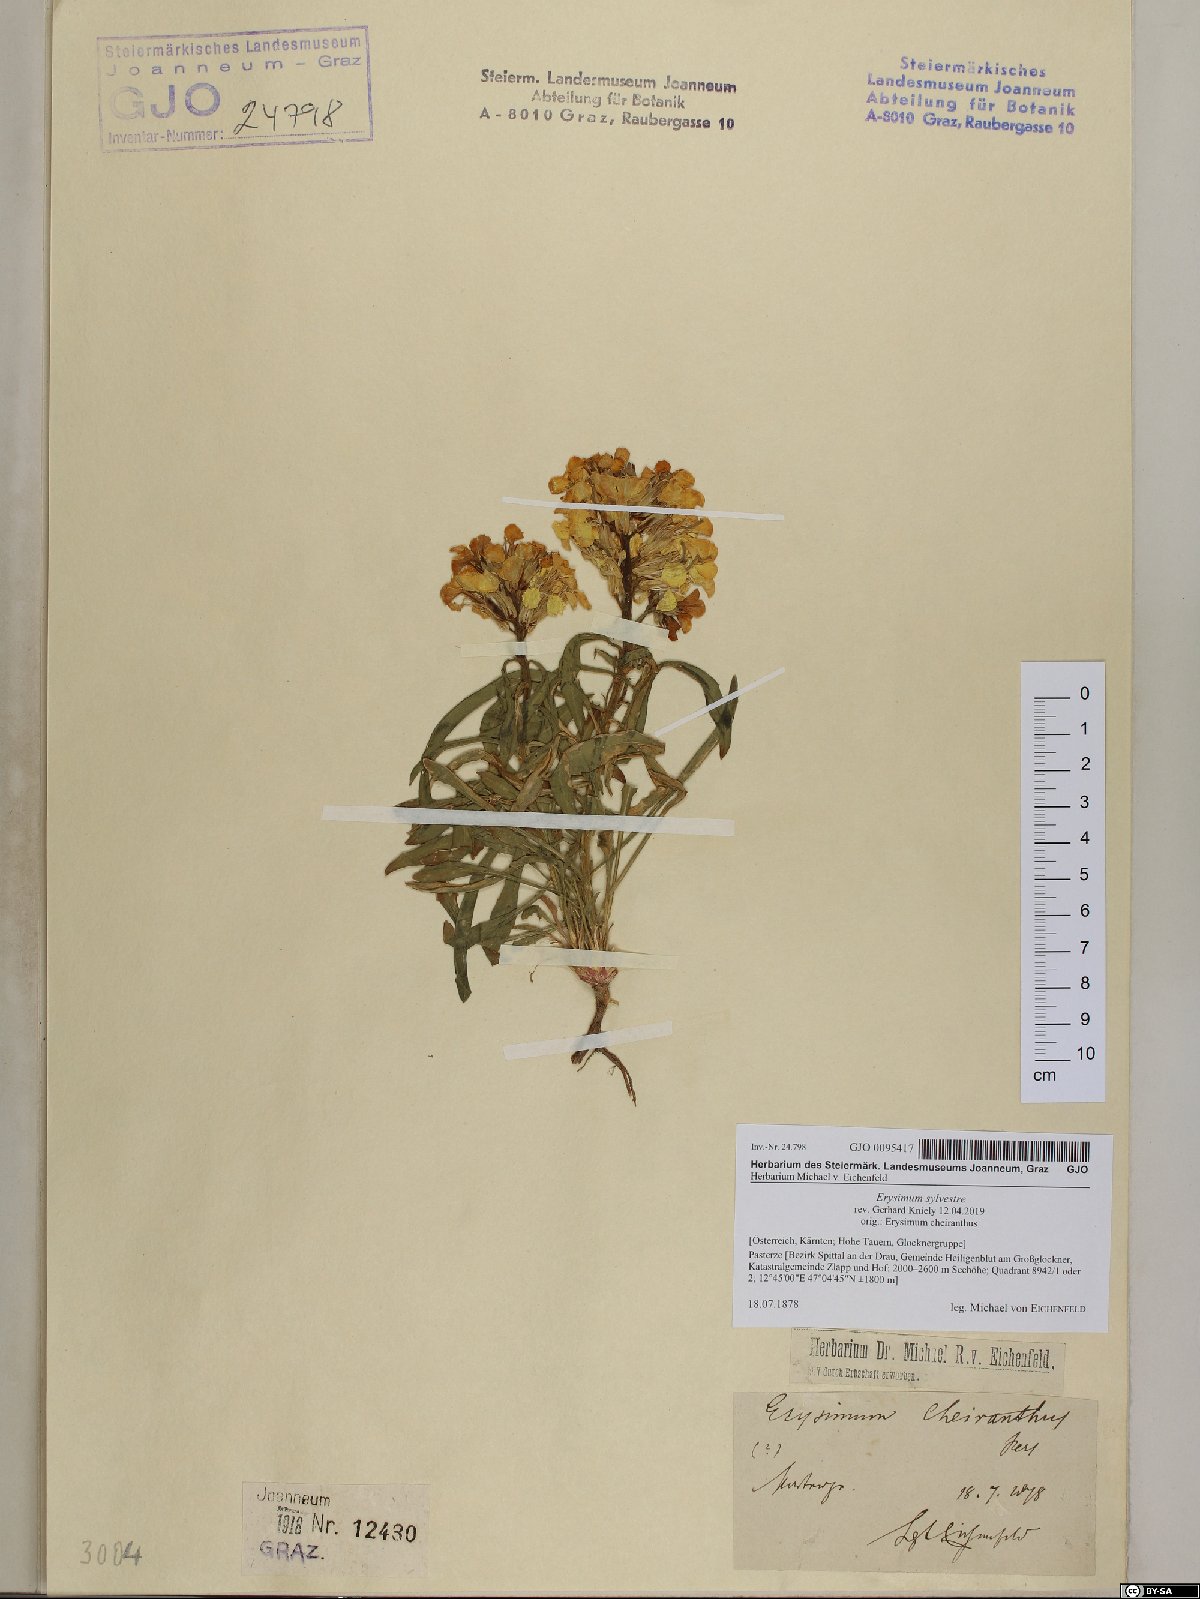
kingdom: Plantae
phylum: Tracheophyta
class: Magnoliopsida
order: Brassicales
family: Brassicaceae
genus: Erysimum
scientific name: Erysimum sylvestre
